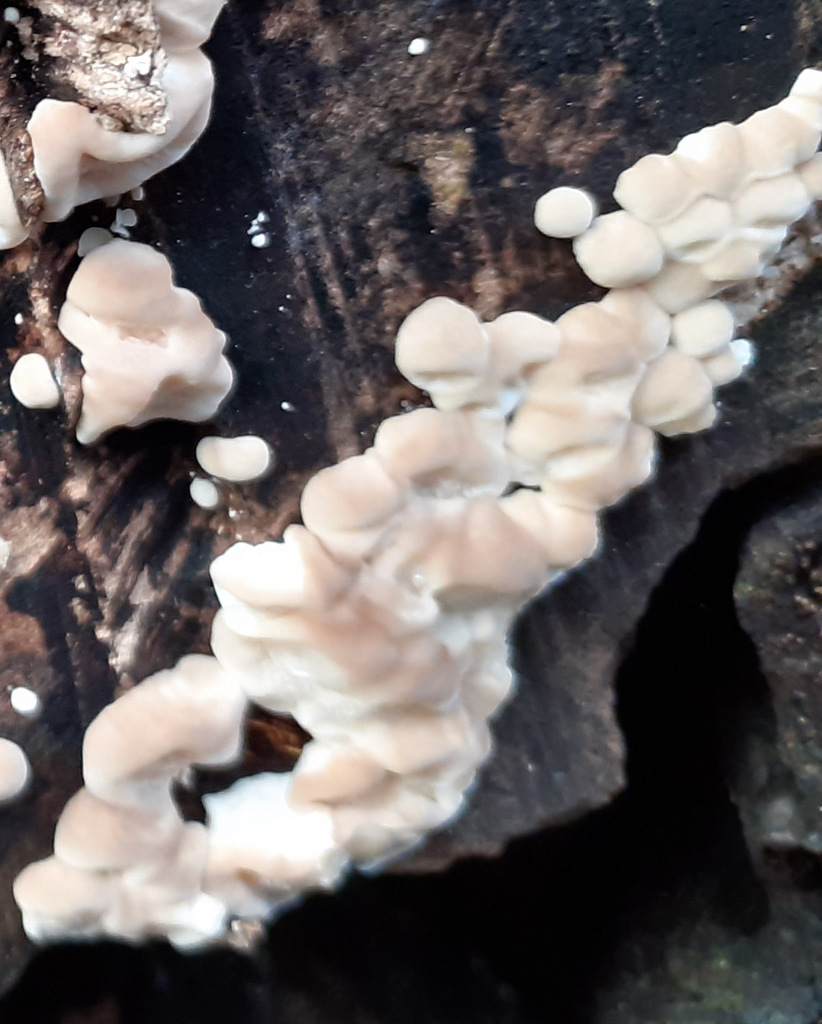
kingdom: Fungi
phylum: Basidiomycota
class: Agaricomycetes
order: Polyporales
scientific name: Polyporales
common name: poresvampordenen
